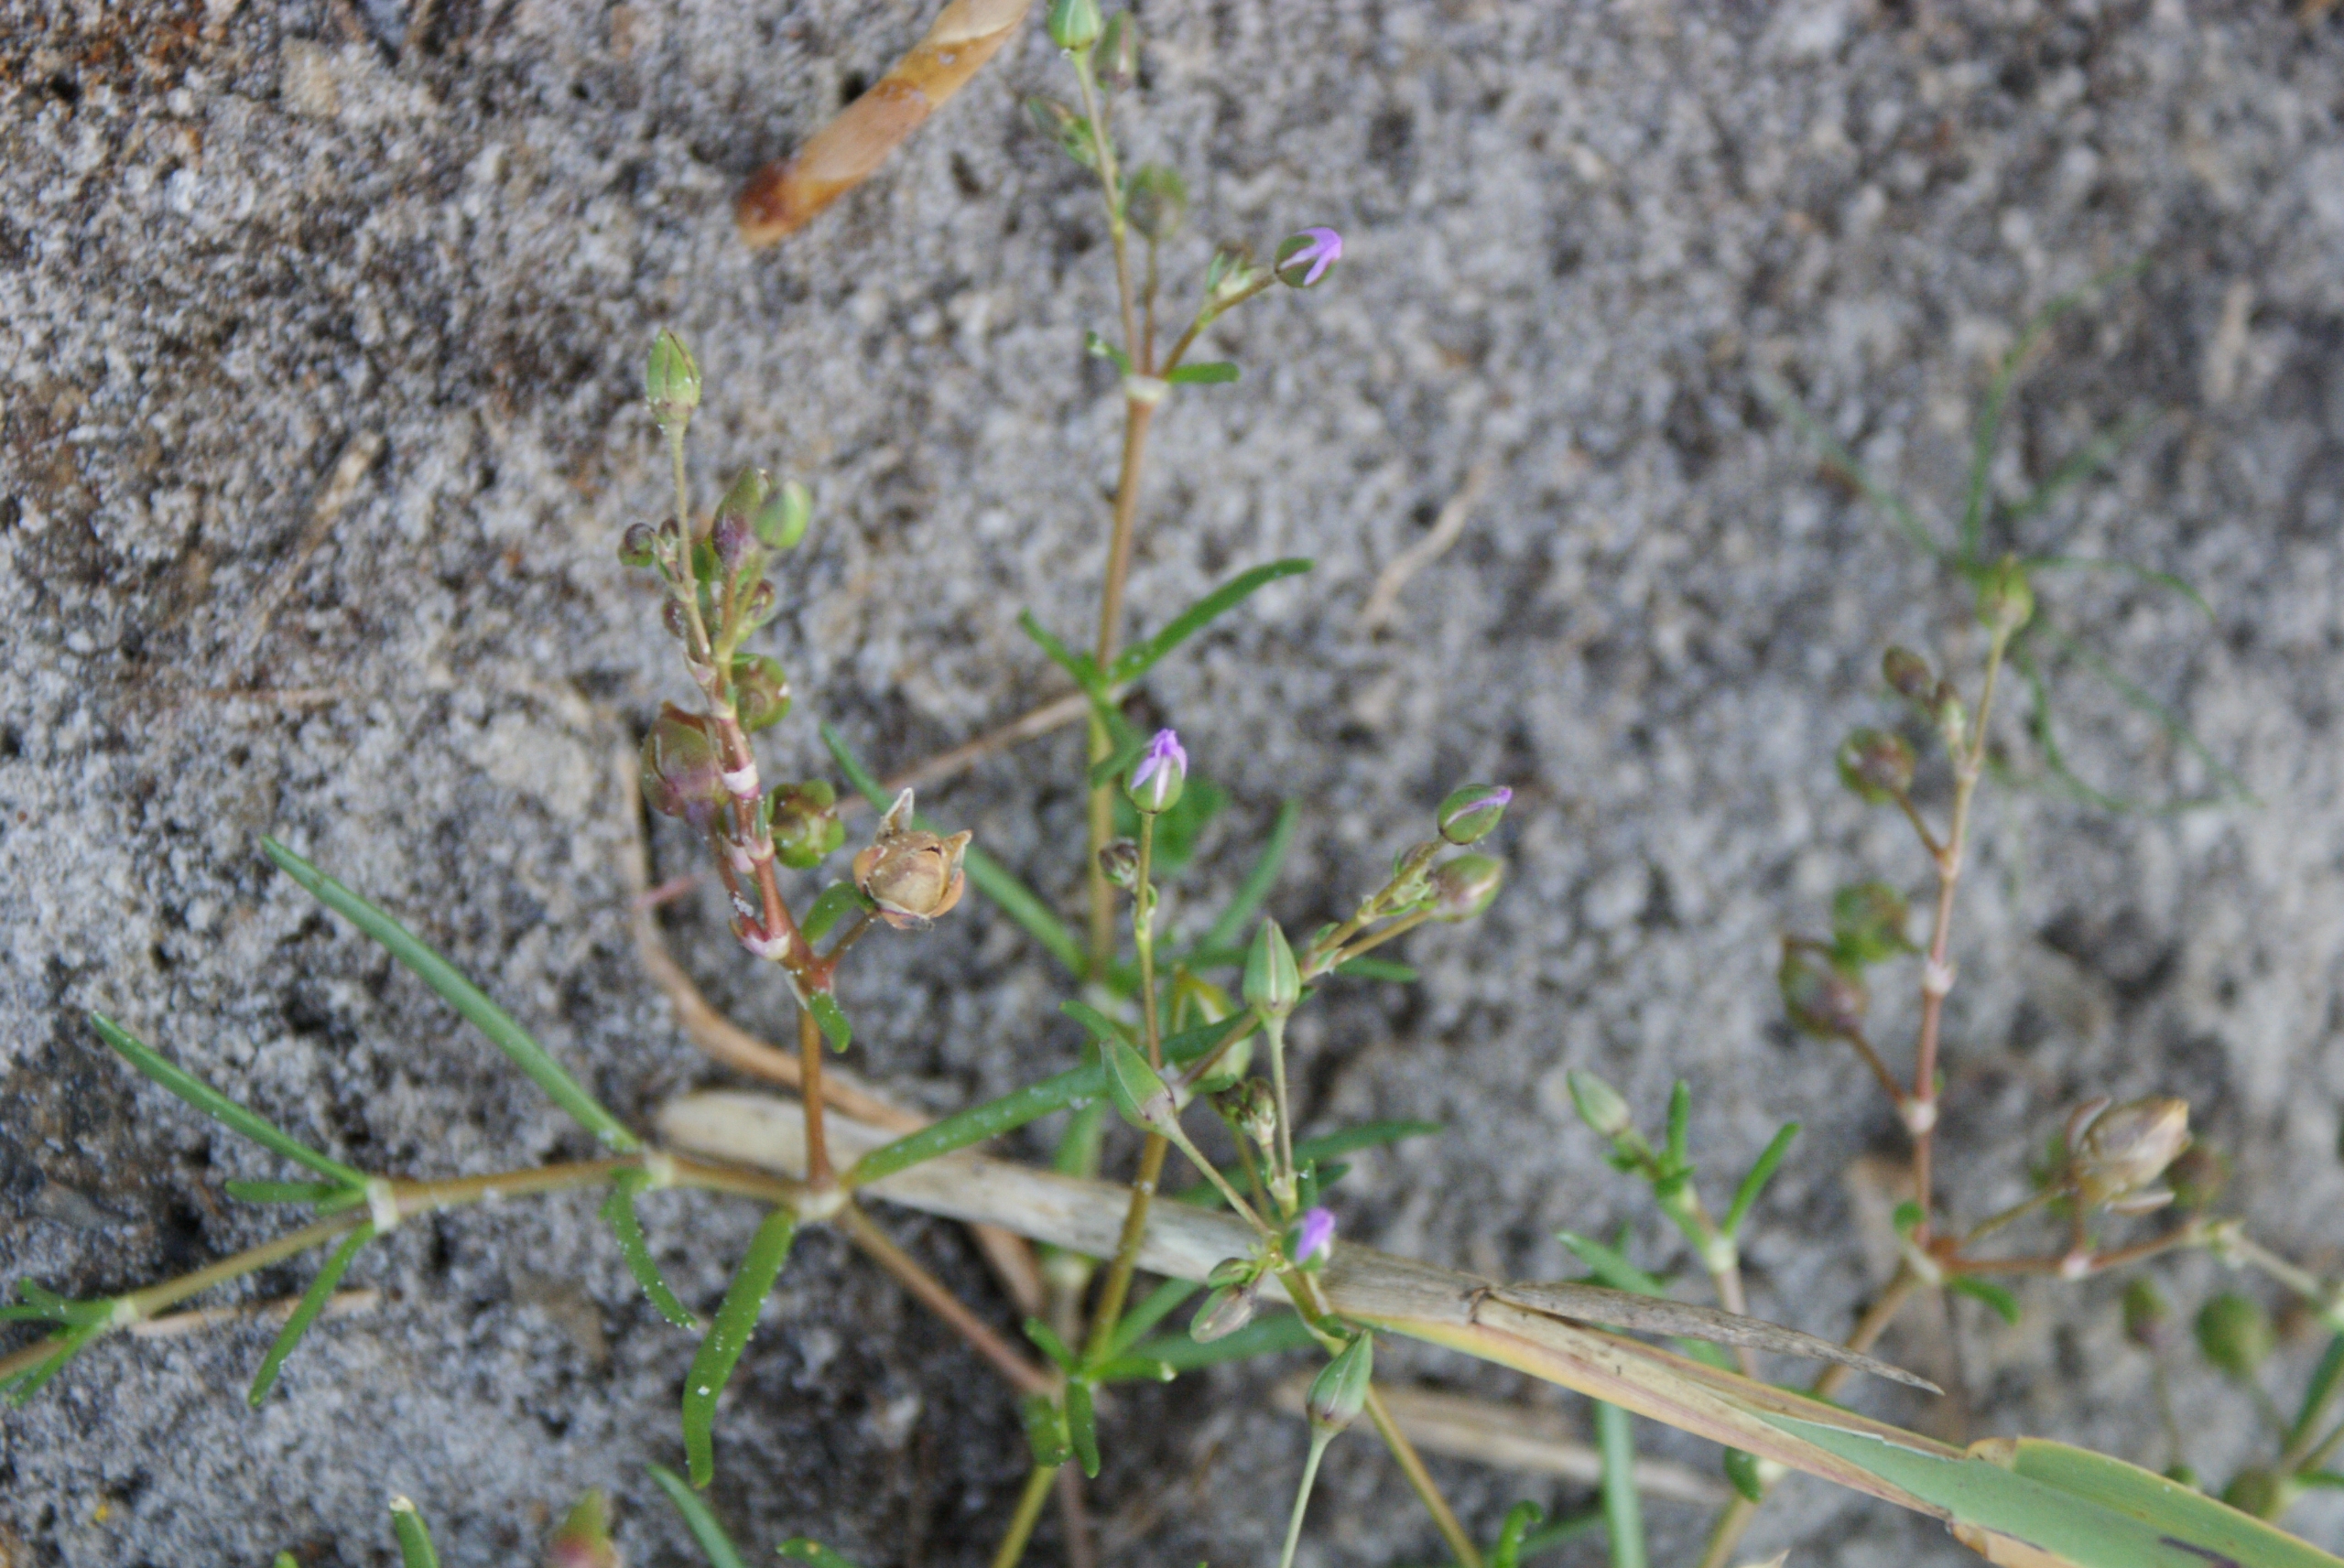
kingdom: Plantae
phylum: Tracheophyta
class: Magnoliopsida
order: Caryophyllales
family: Caryophyllaceae
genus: Spergularia
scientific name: Spergularia media
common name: Vingefrøet hindeknæ
